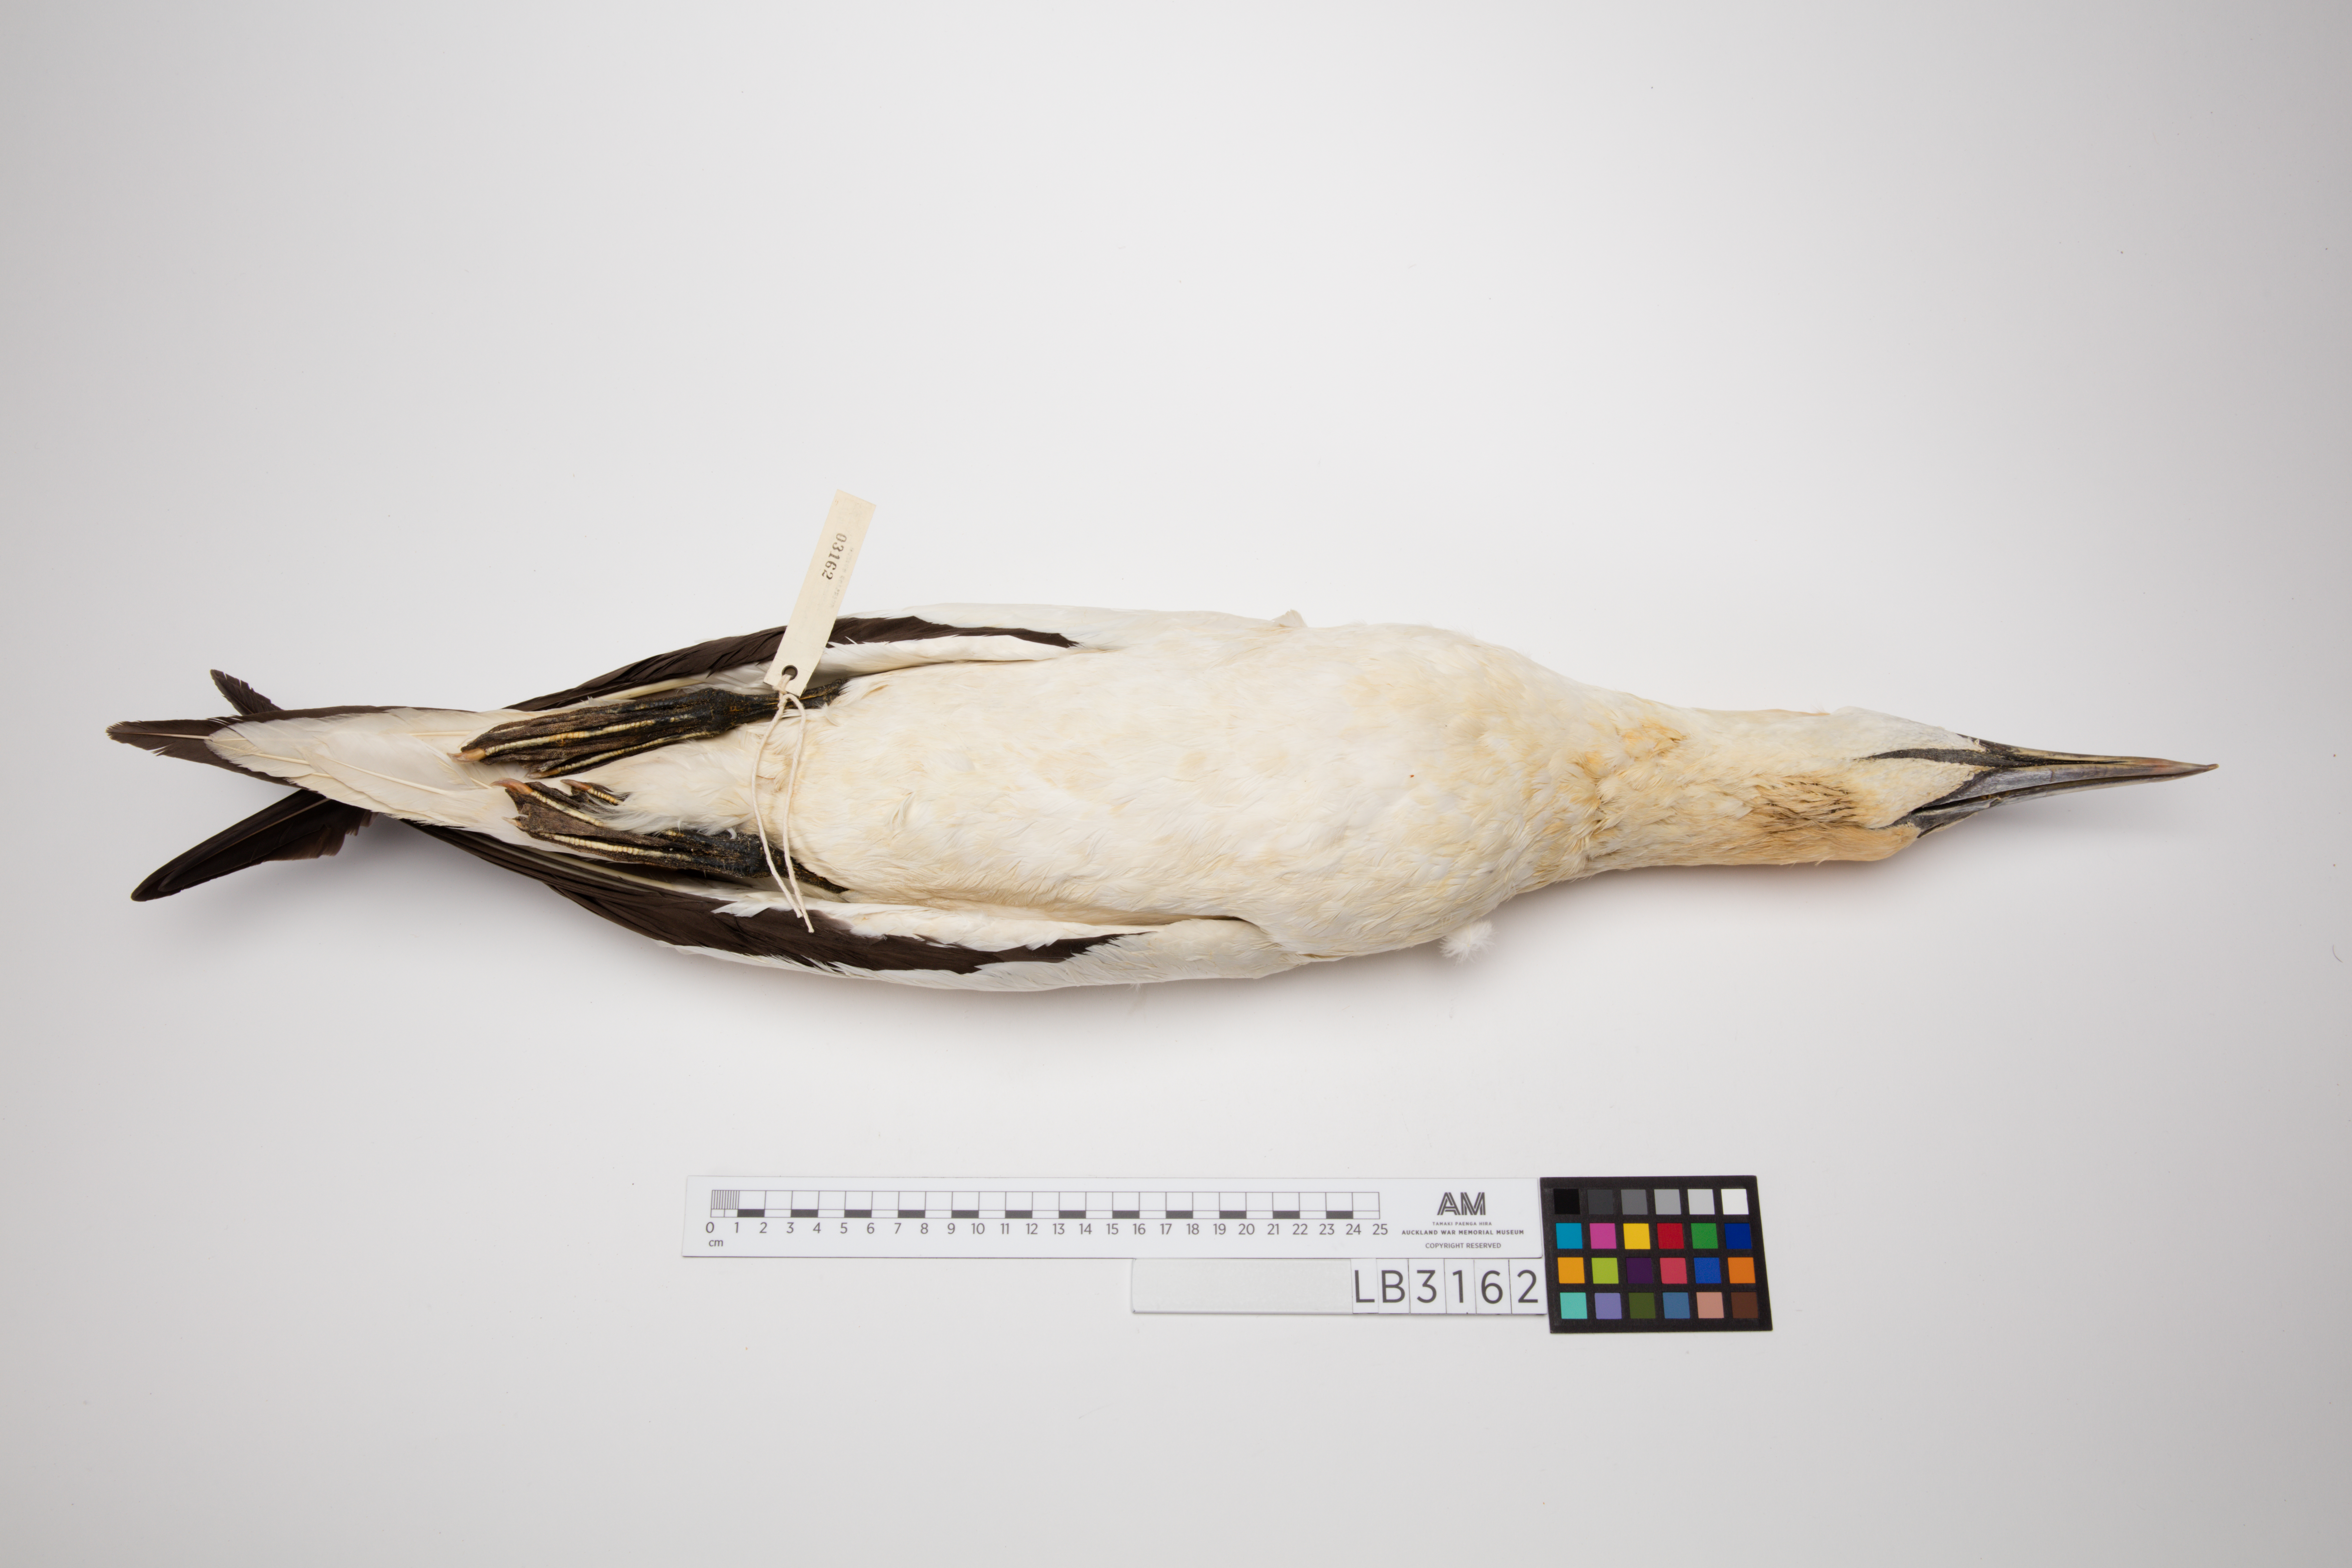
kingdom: Animalia
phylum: Chordata
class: Aves
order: Suliformes
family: Sulidae
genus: Morus
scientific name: Morus serrator
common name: Australasian gannet
